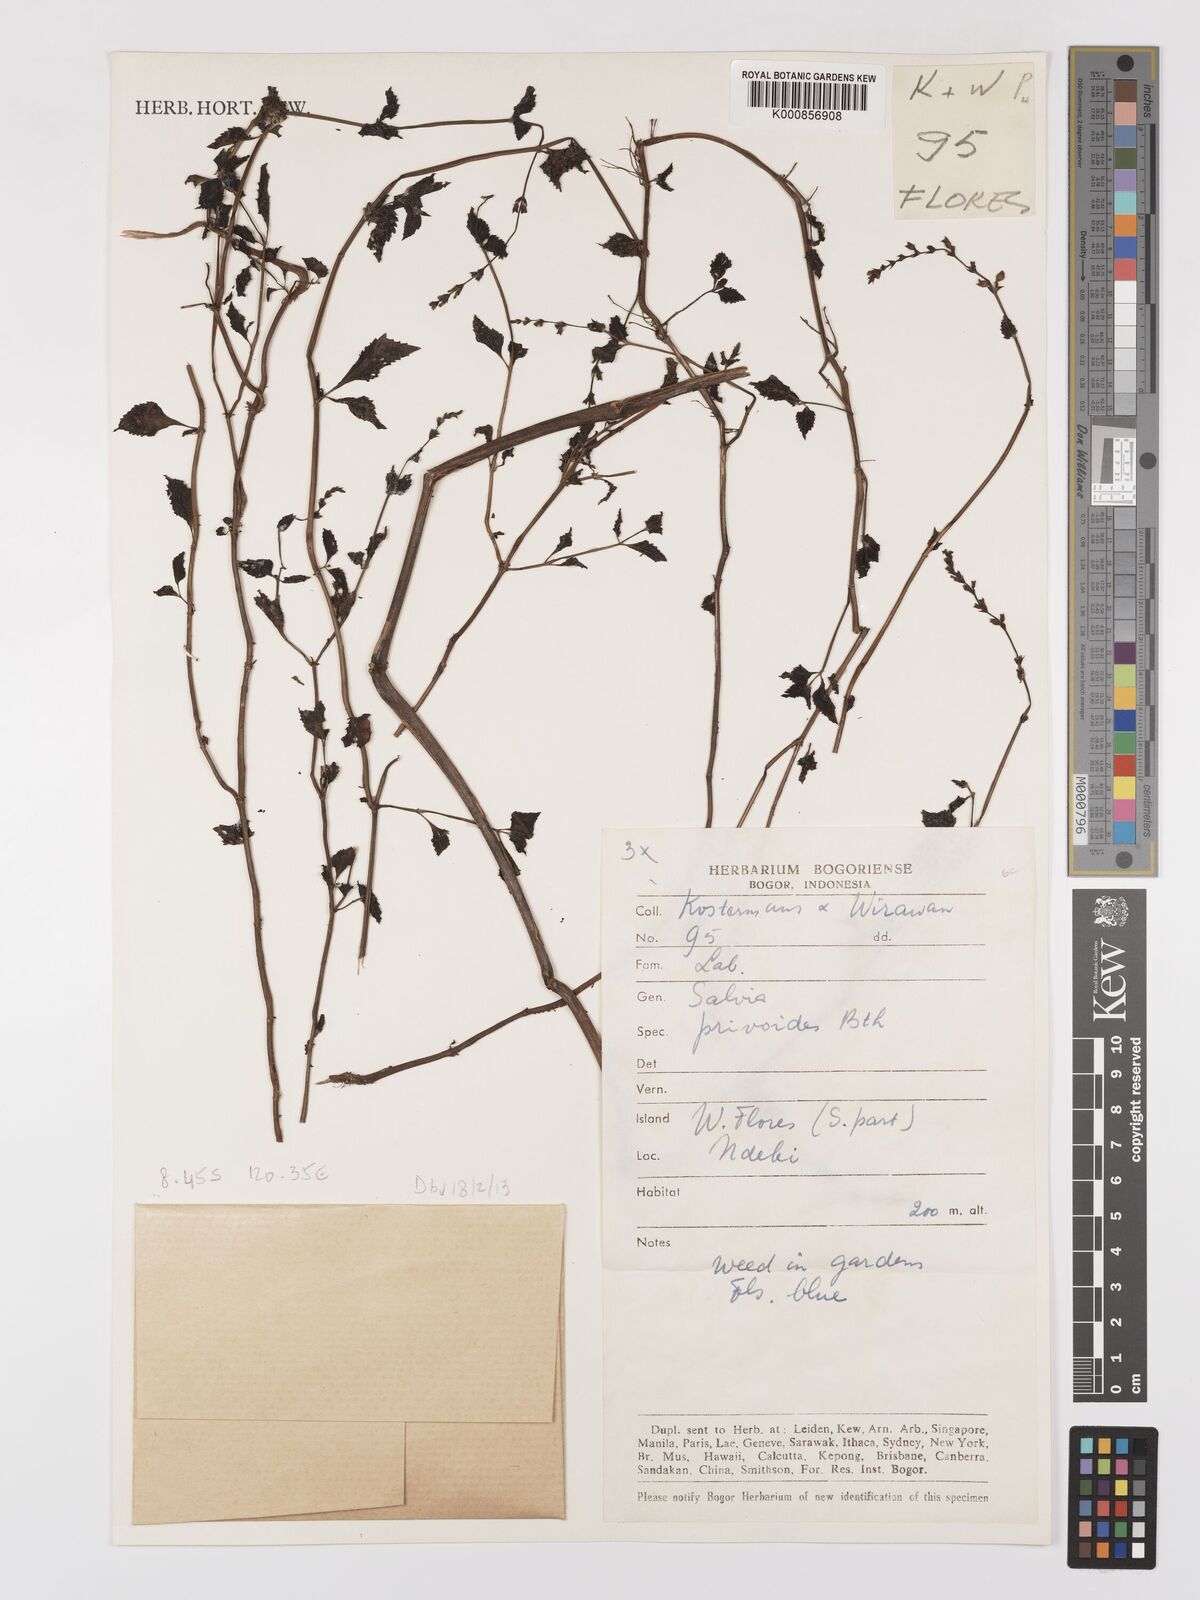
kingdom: Plantae
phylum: Tracheophyta
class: Magnoliopsida
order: Lamiales
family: Lamiaceae
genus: Salvia
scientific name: Salvia misella
